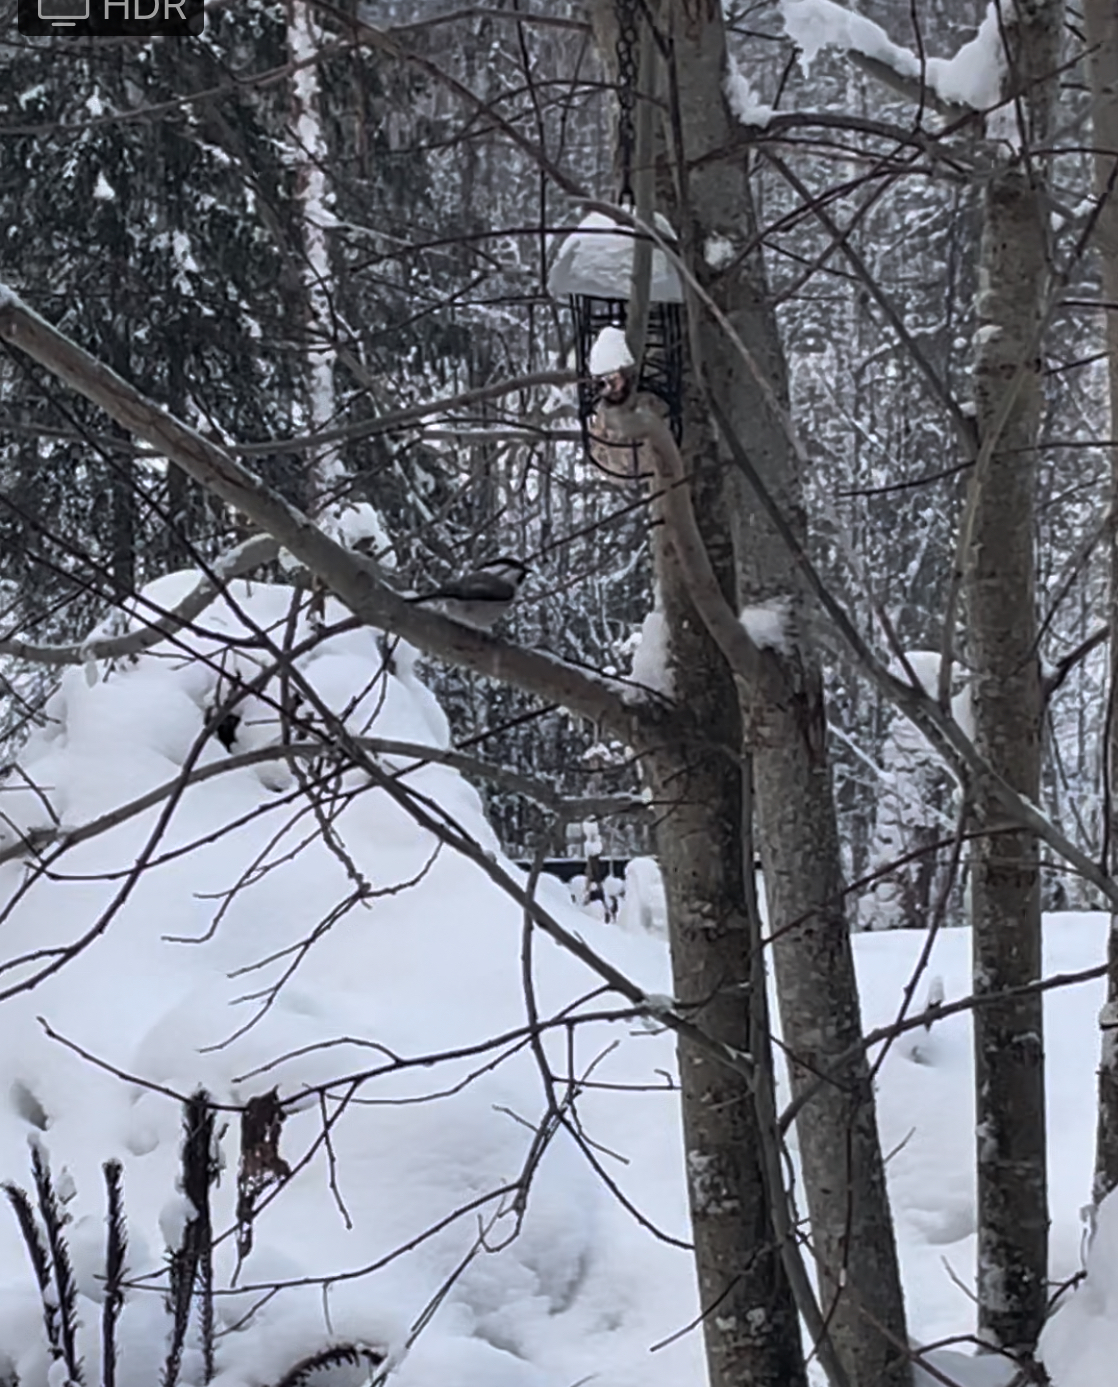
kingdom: Animalia
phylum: Chordata
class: Aves
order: Passeriformes
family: Paridae
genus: Poecile
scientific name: Poecile
